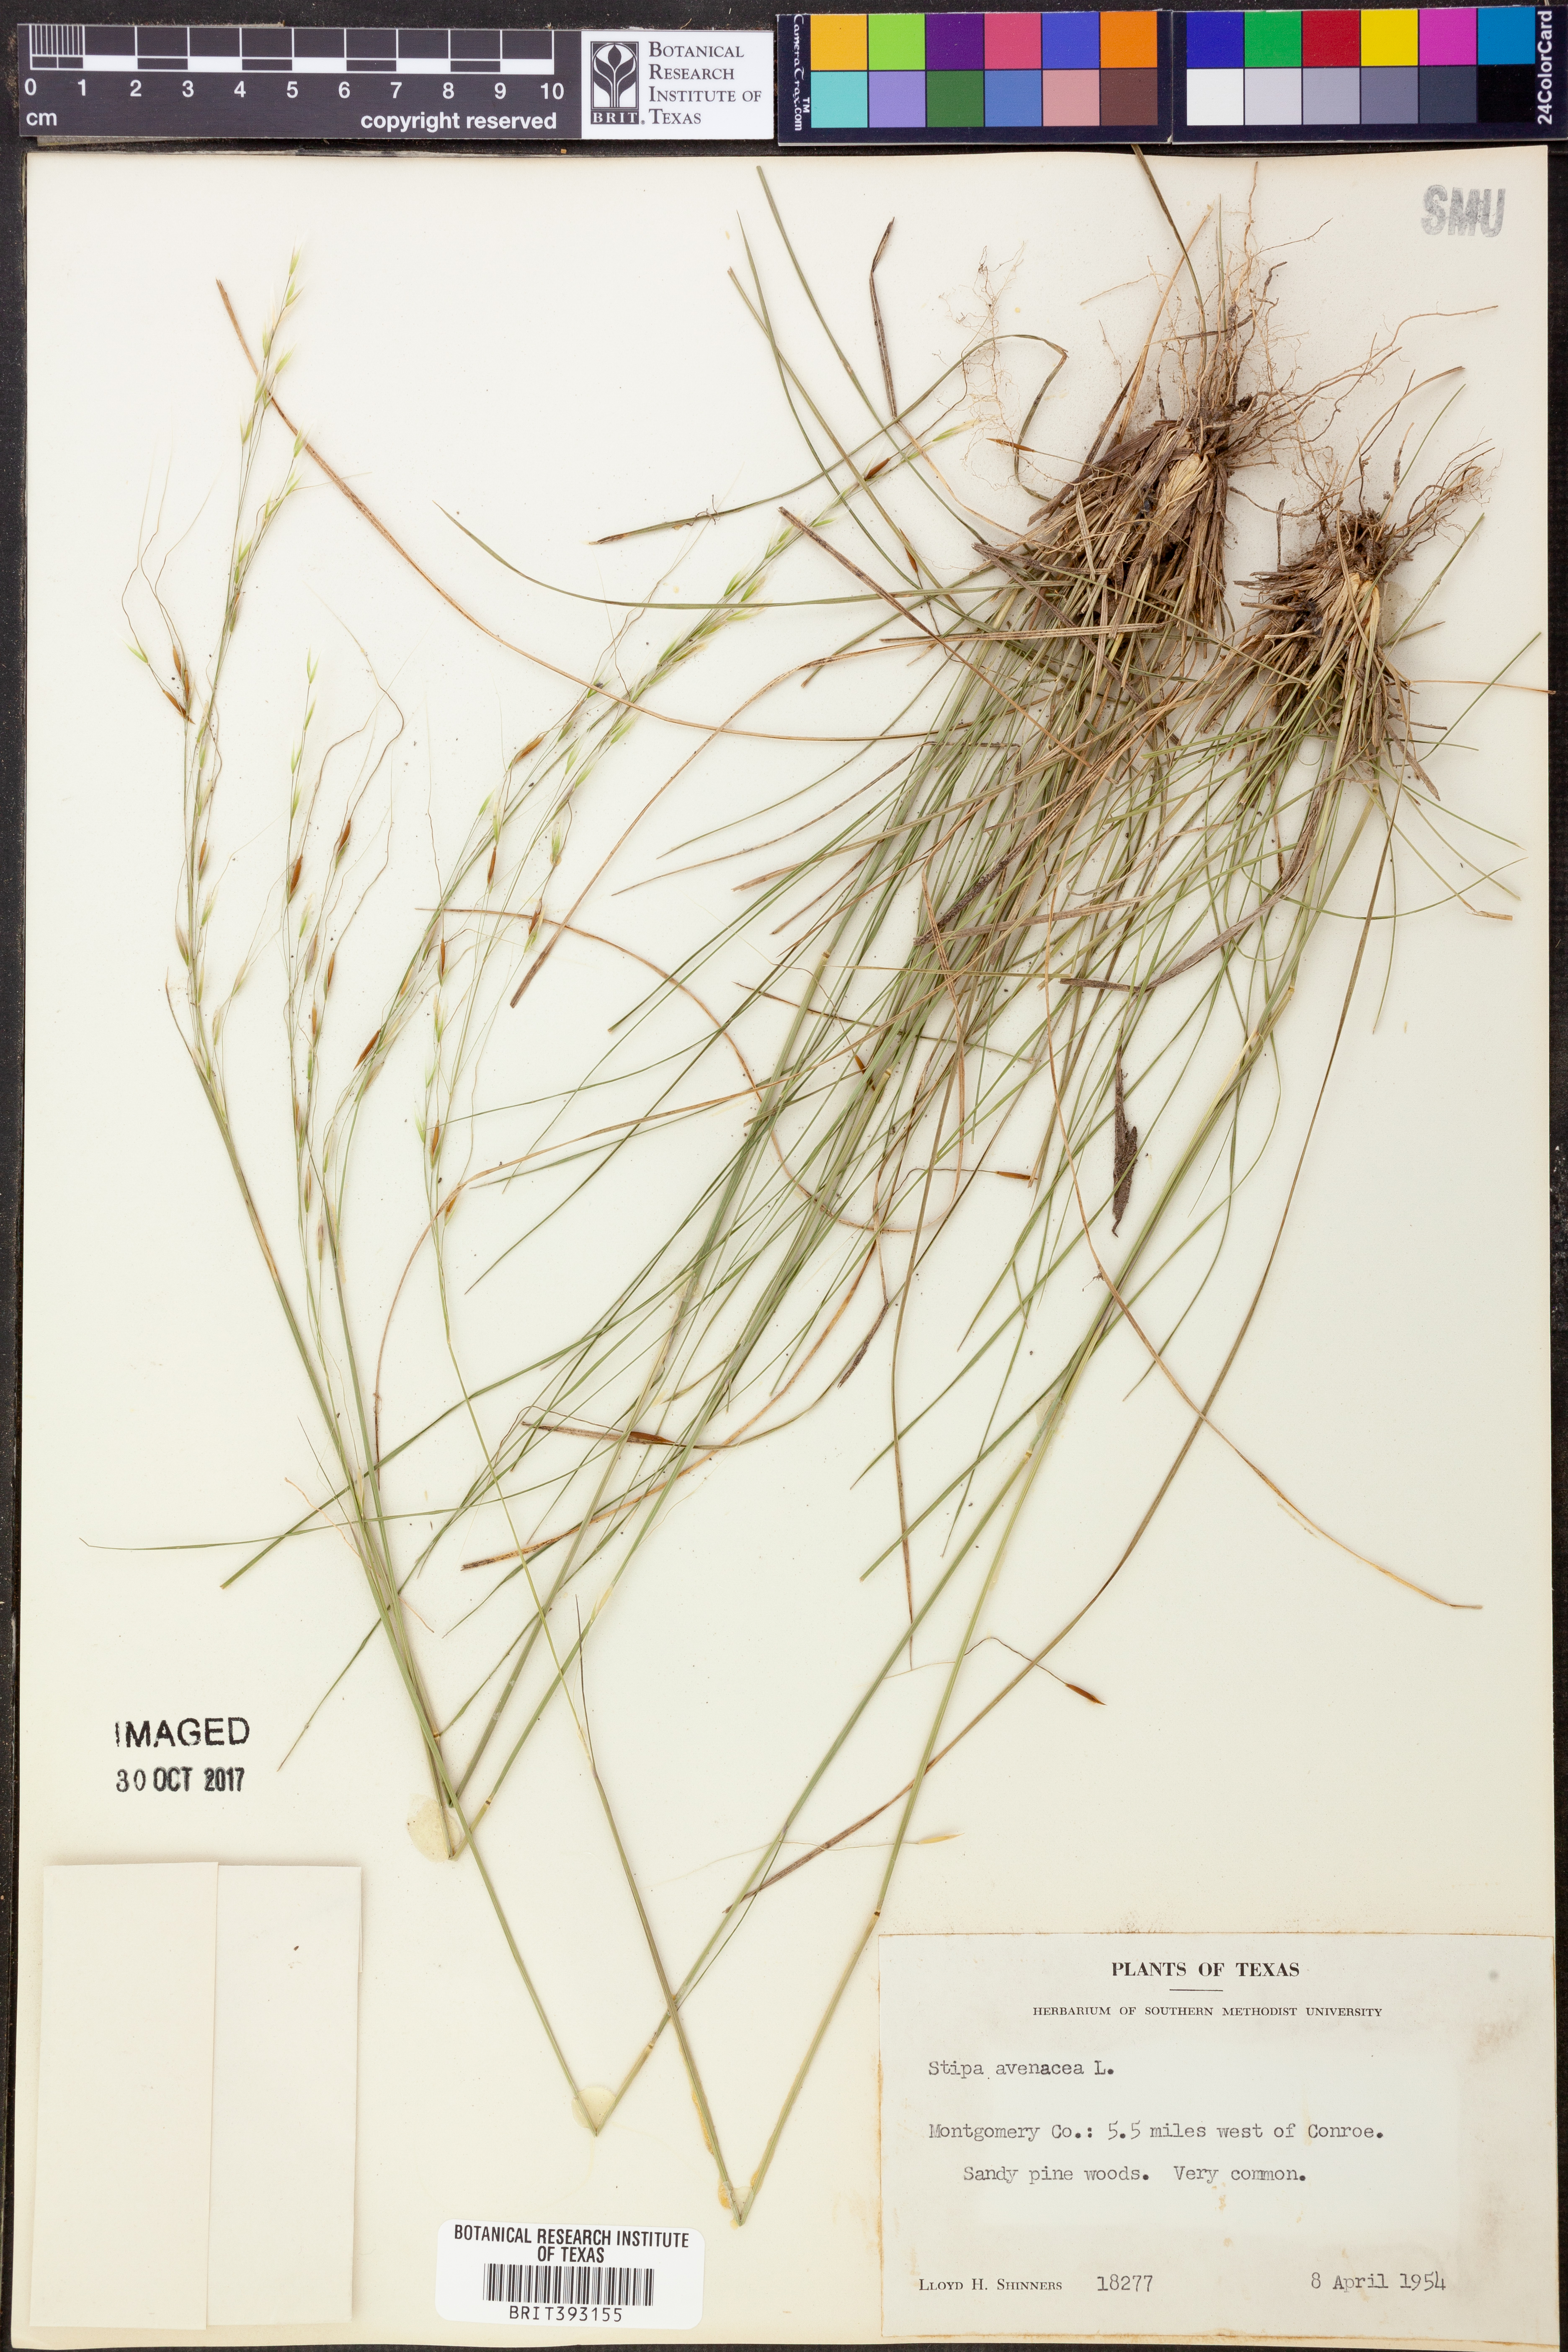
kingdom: Plantae
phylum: Tracheophyta
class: Liliopsida
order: Poales
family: Poaceae
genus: Piptochaetium
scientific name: Piptochaetium avenaceum
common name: Black bunchgrass
